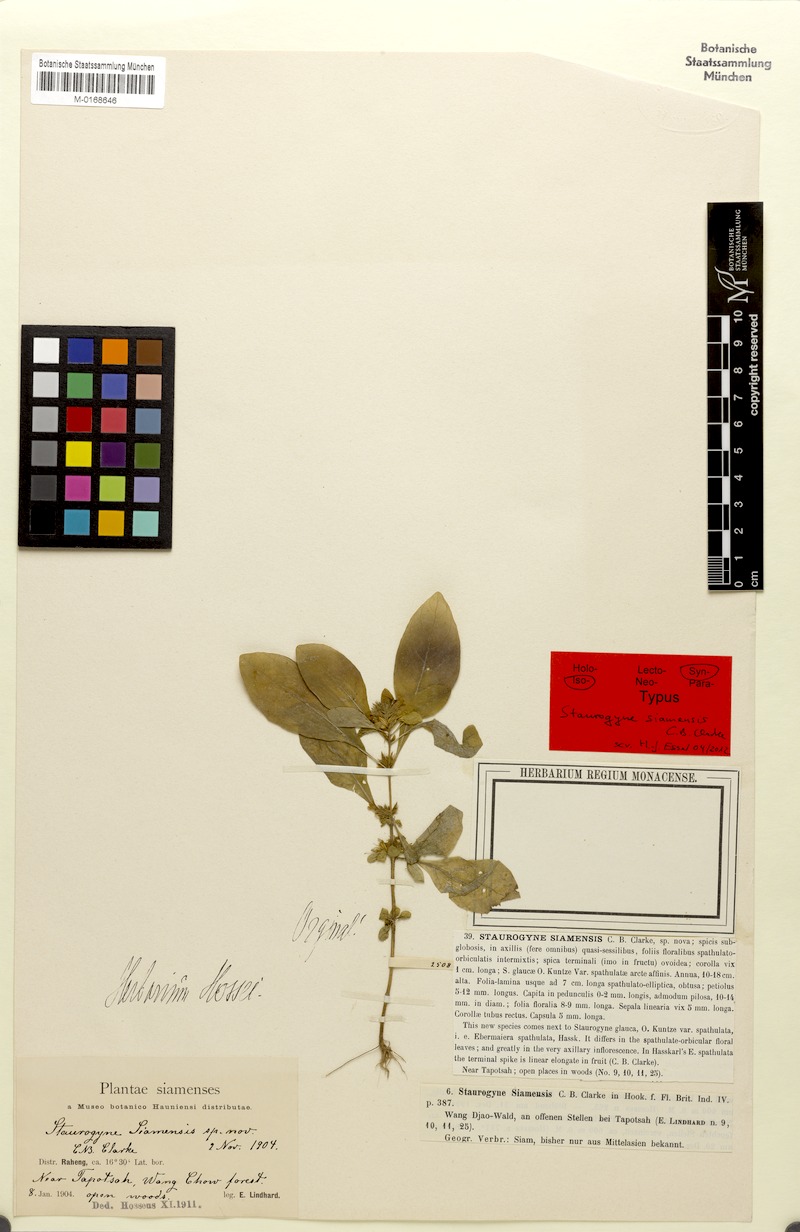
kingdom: Plantae
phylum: Tracheophyta
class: Magnoliopsida
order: Lamiales
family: Acanthaceae
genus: Staurogyne
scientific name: Staurogyne spathulata
